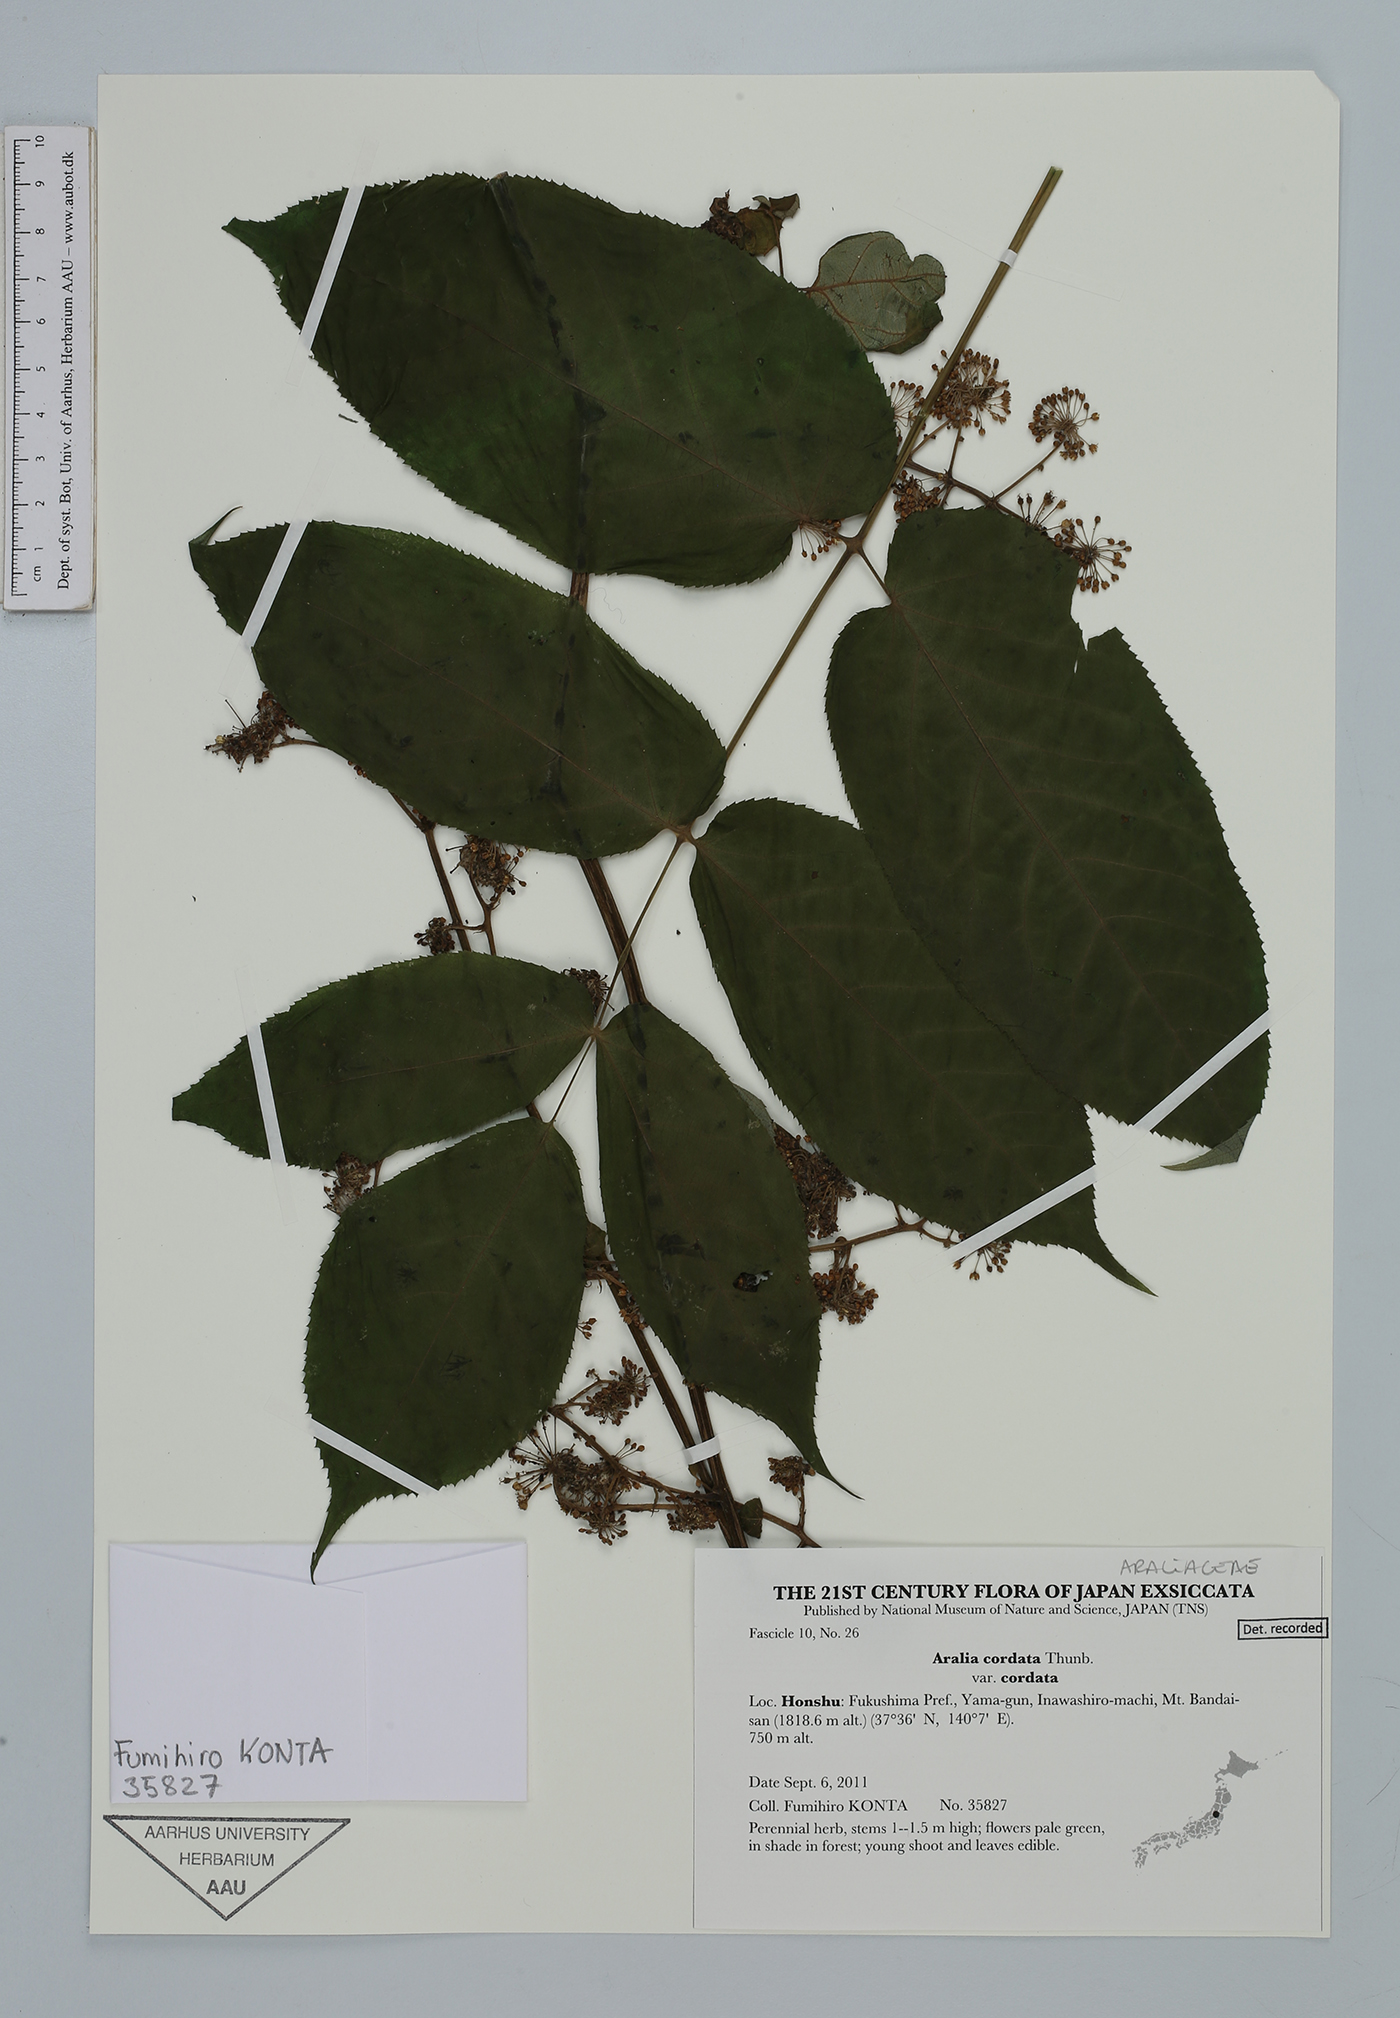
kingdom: Plantae
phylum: Tracheophyta
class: Magnoliopsida
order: Apiales
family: Araliaceae
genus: Aralia
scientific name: Aralia cordata
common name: Udo
